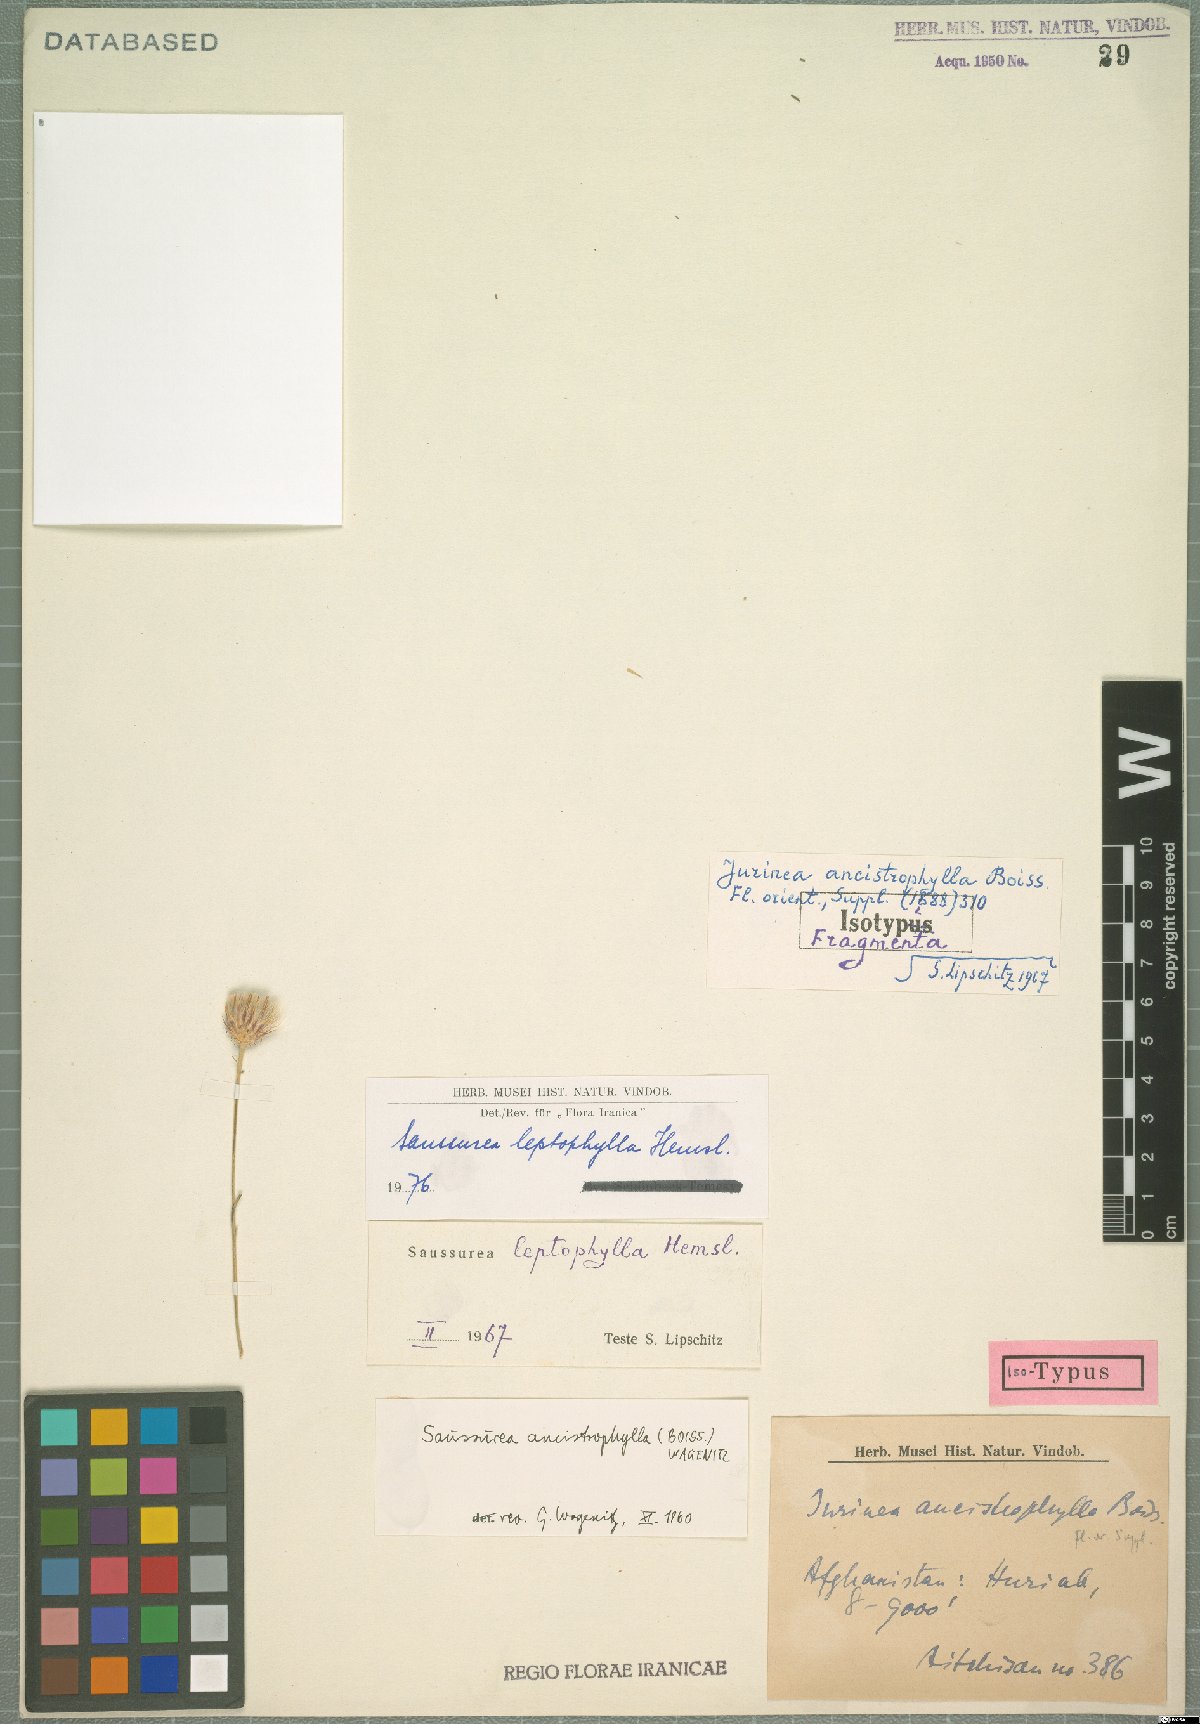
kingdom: Plantae
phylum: Tracheophyta
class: Magnoliopsida
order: Asterales
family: Asteraceae
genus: Jurinea
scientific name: Jurinea leptophylla
